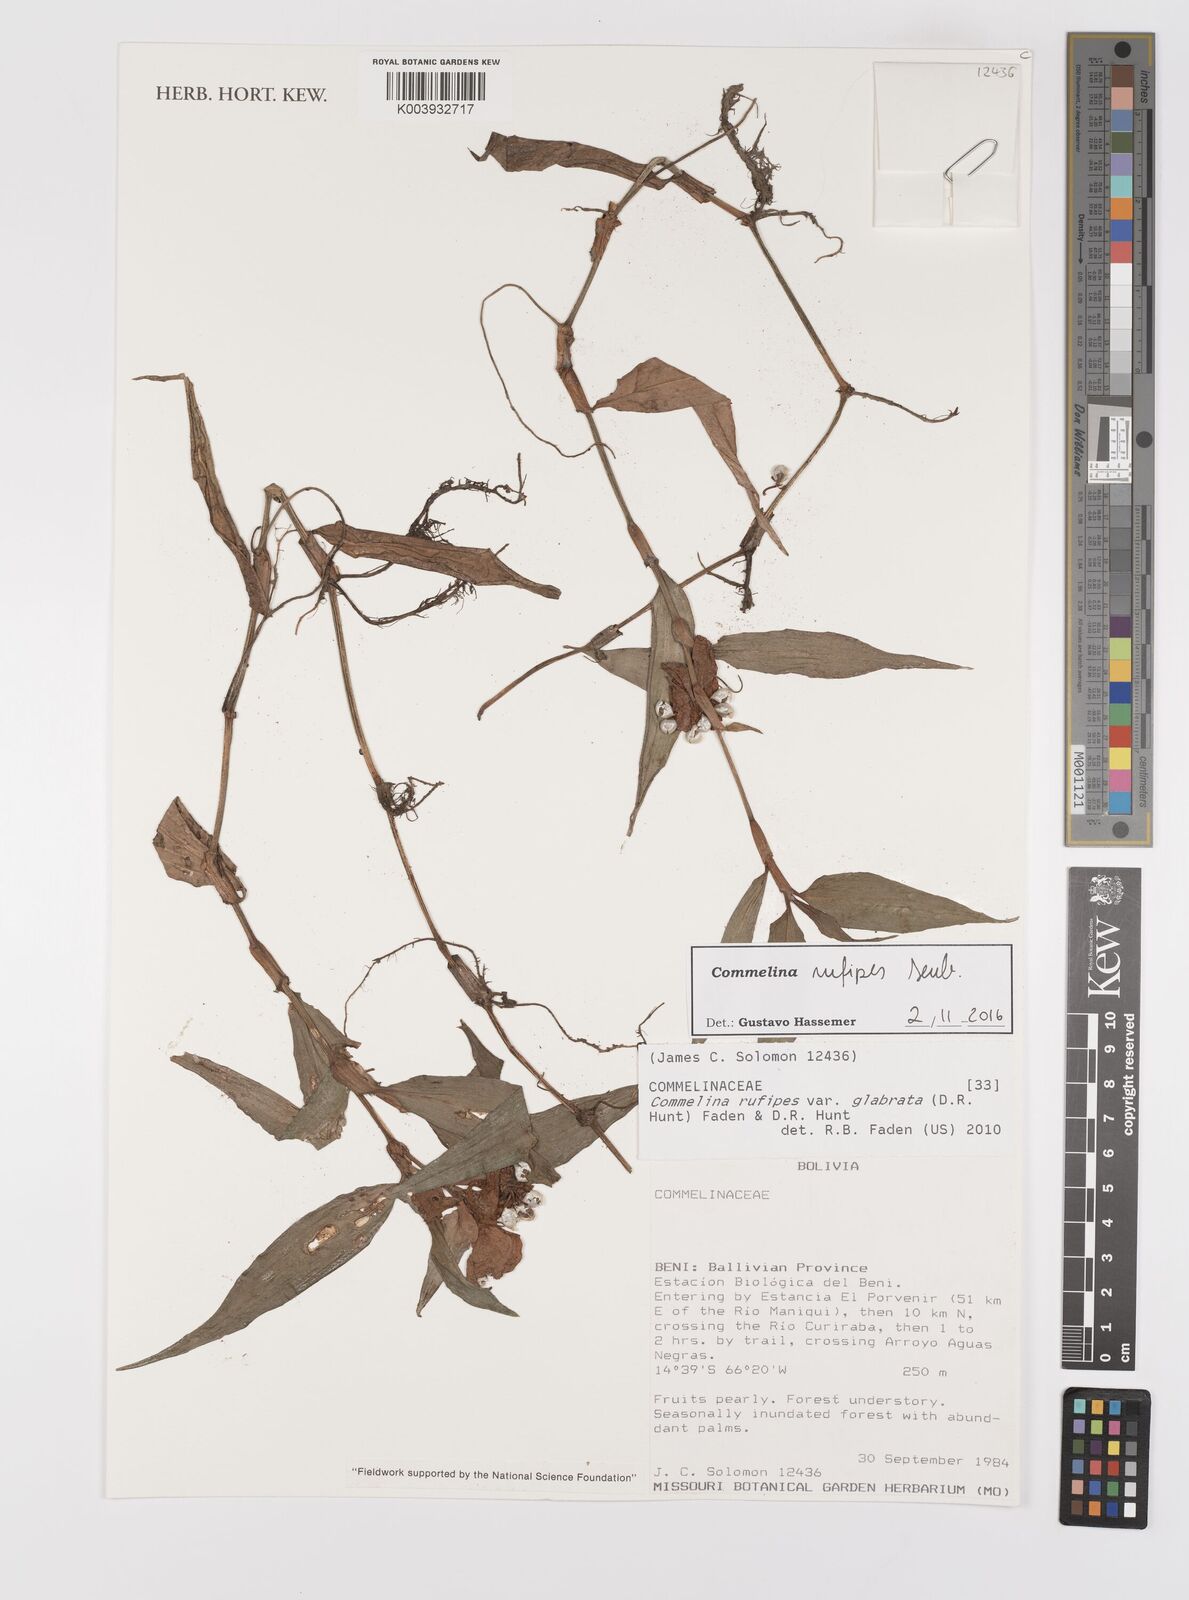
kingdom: Plantae
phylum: Tracheophyta
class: Liliopsida
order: Commelinales
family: Commelinaceae
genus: Commelina
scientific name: Commelina rufipes
